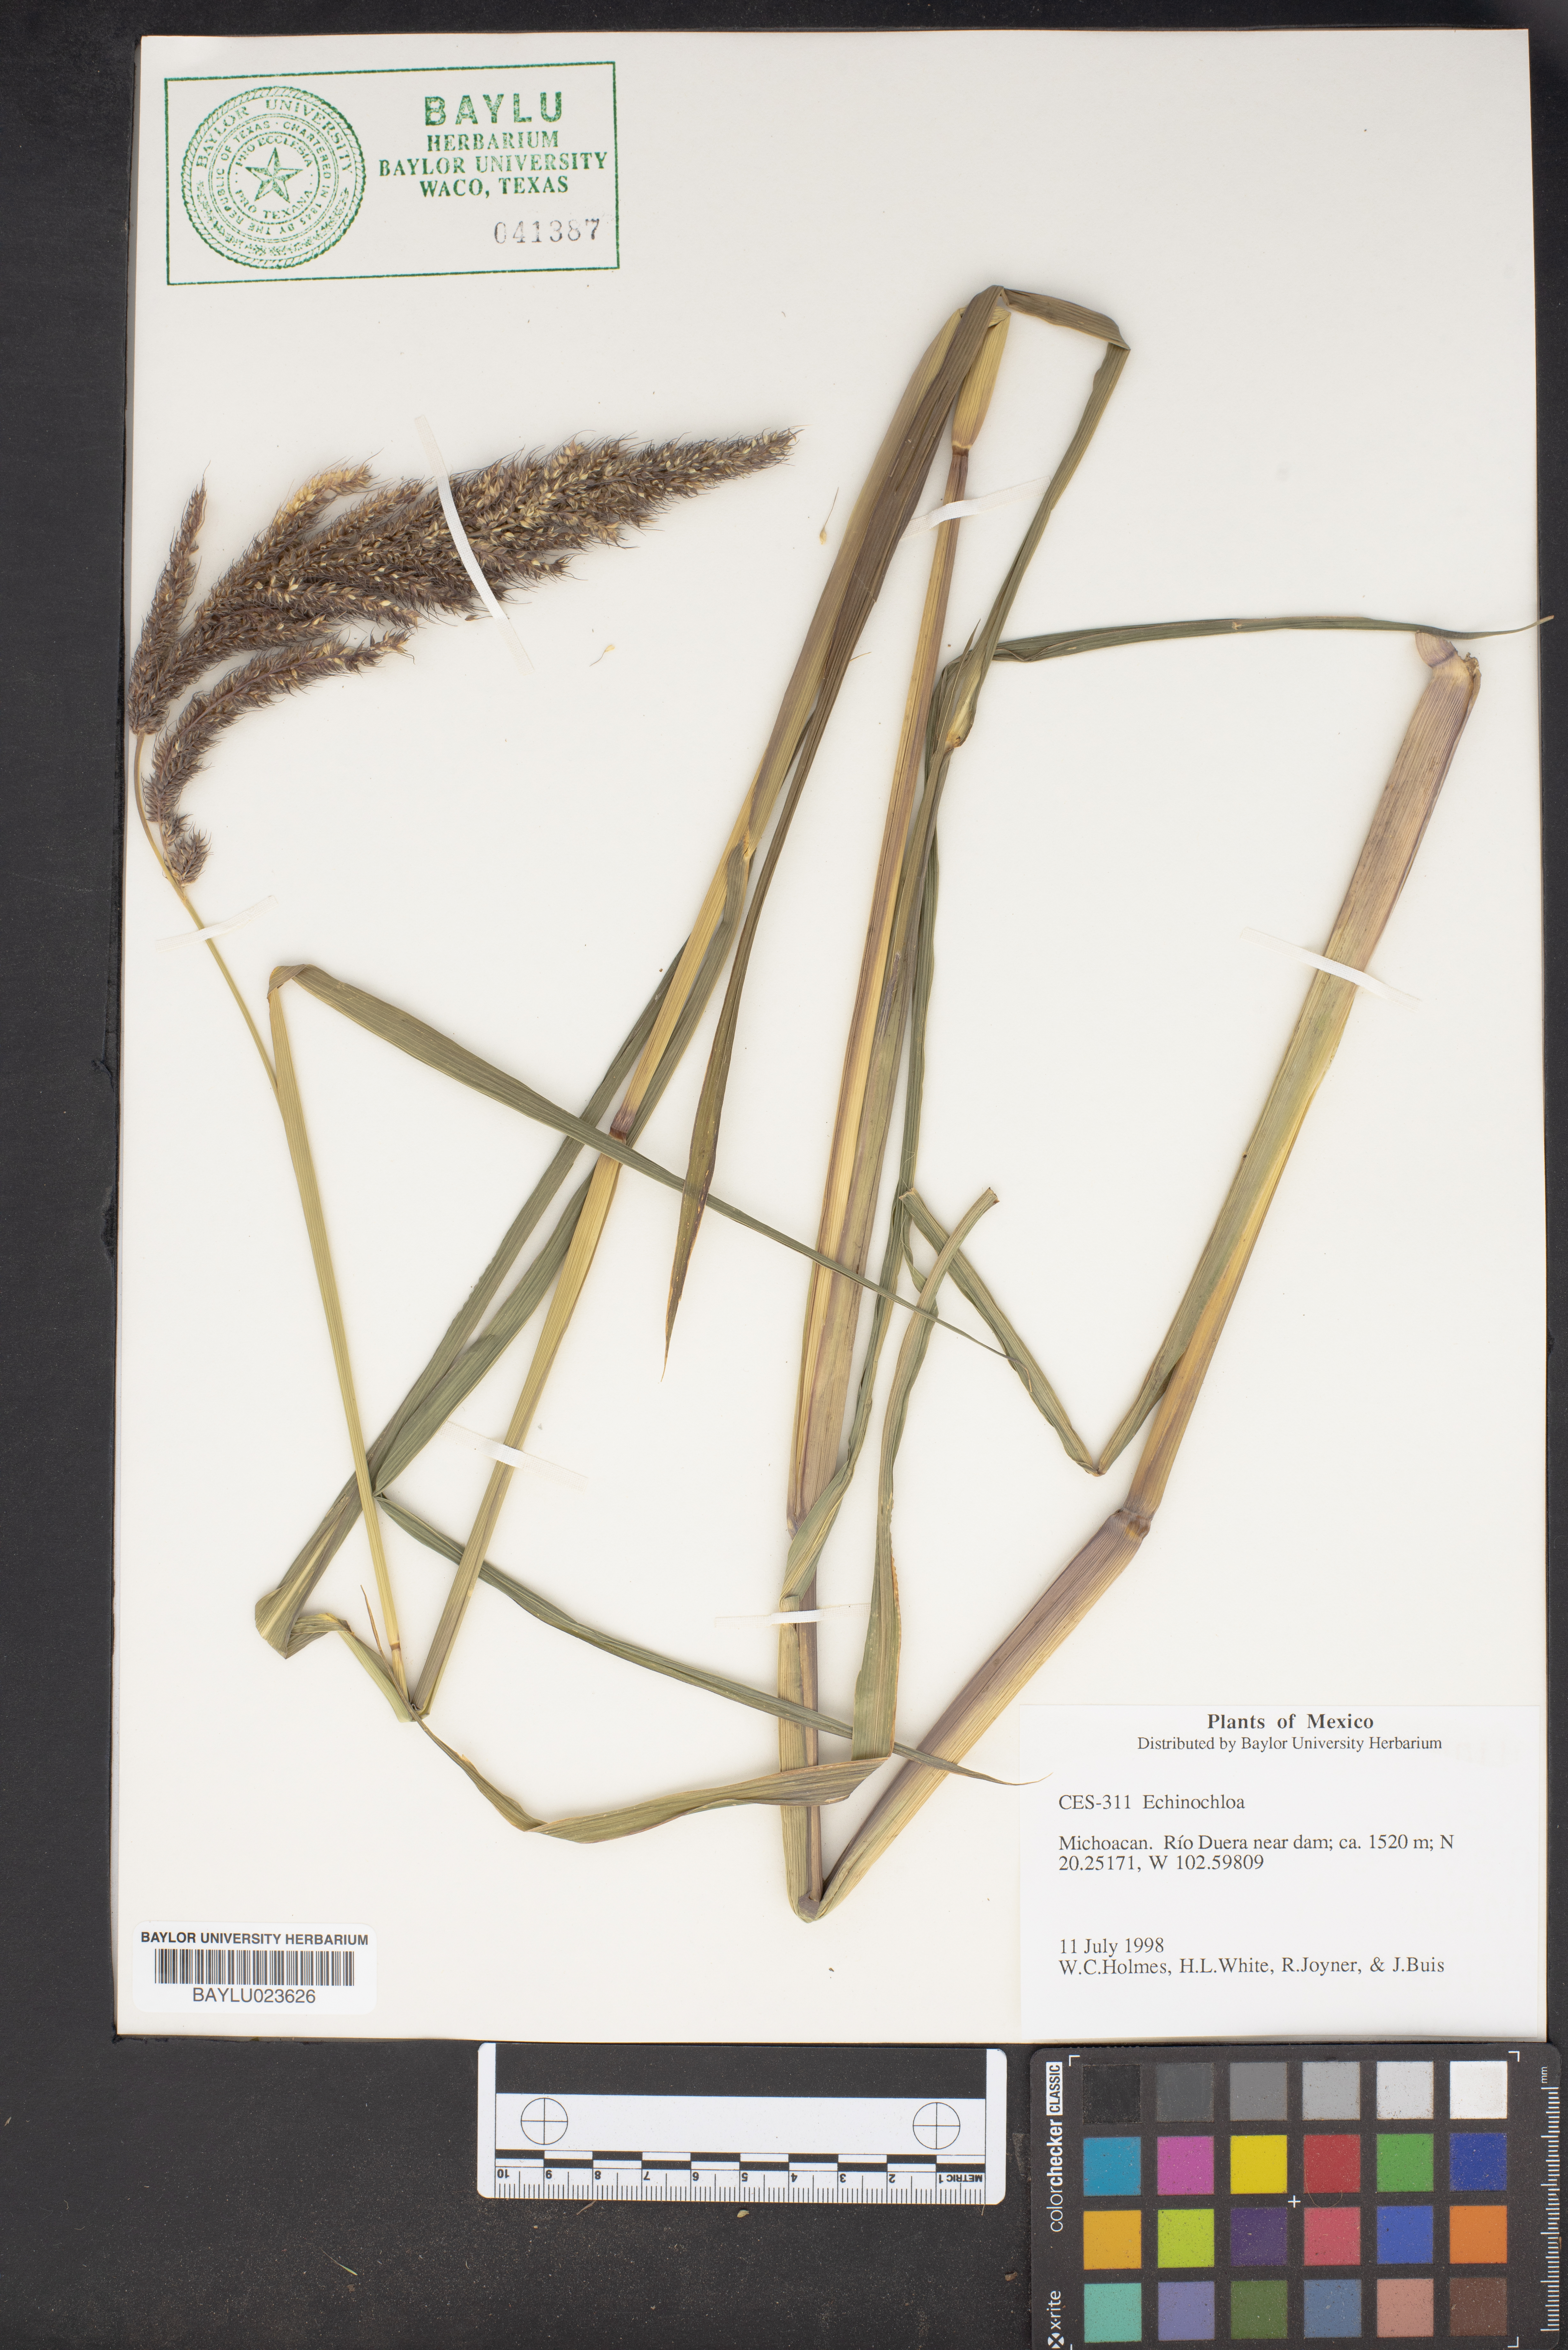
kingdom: Plantae
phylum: Tracheophyta
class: Liliopsida
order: Poales
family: Poaceae
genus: Echinochloa
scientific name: Echinochloa
